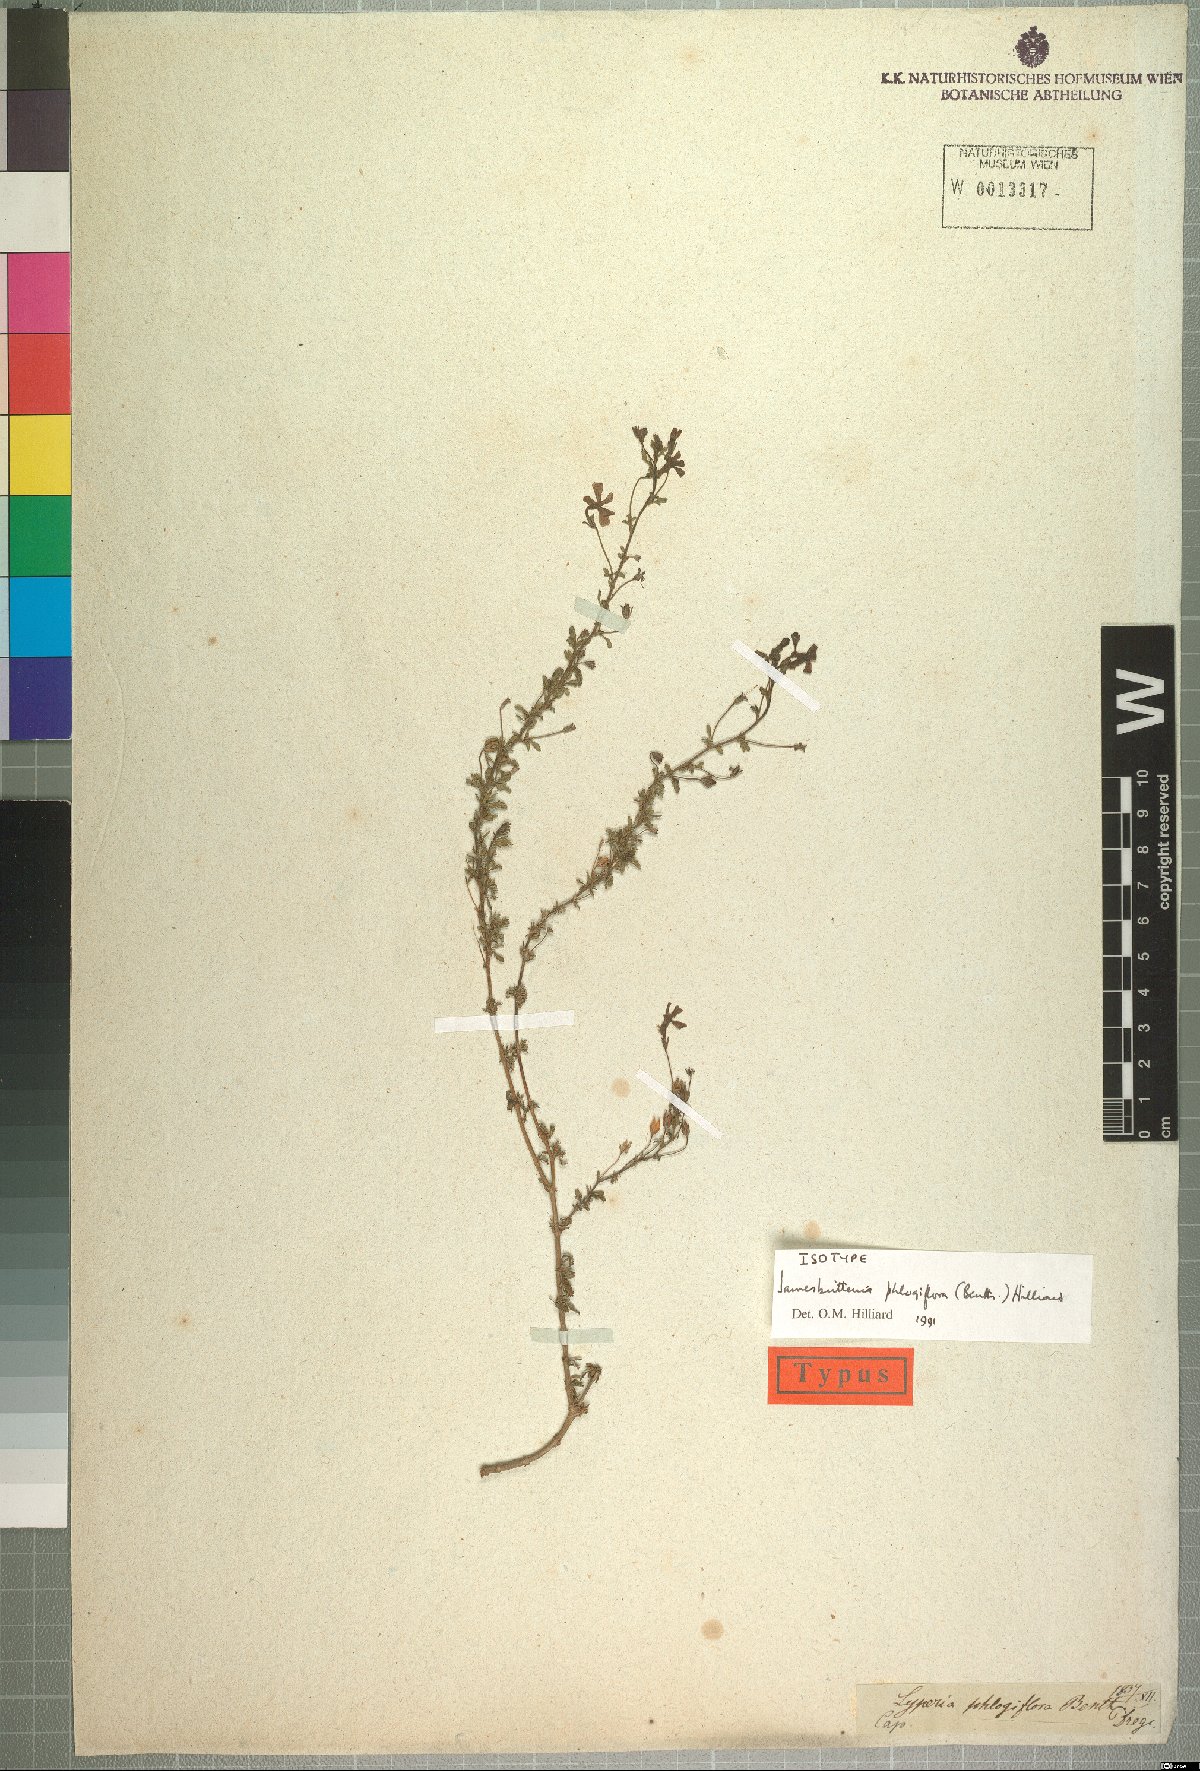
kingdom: Plantae
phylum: Tracheophyta
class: Magnoliopsida
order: Lamiales
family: Scrophulariaceae
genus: Jamesbrittenia
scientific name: Jamesbrittenia phlogiflora
